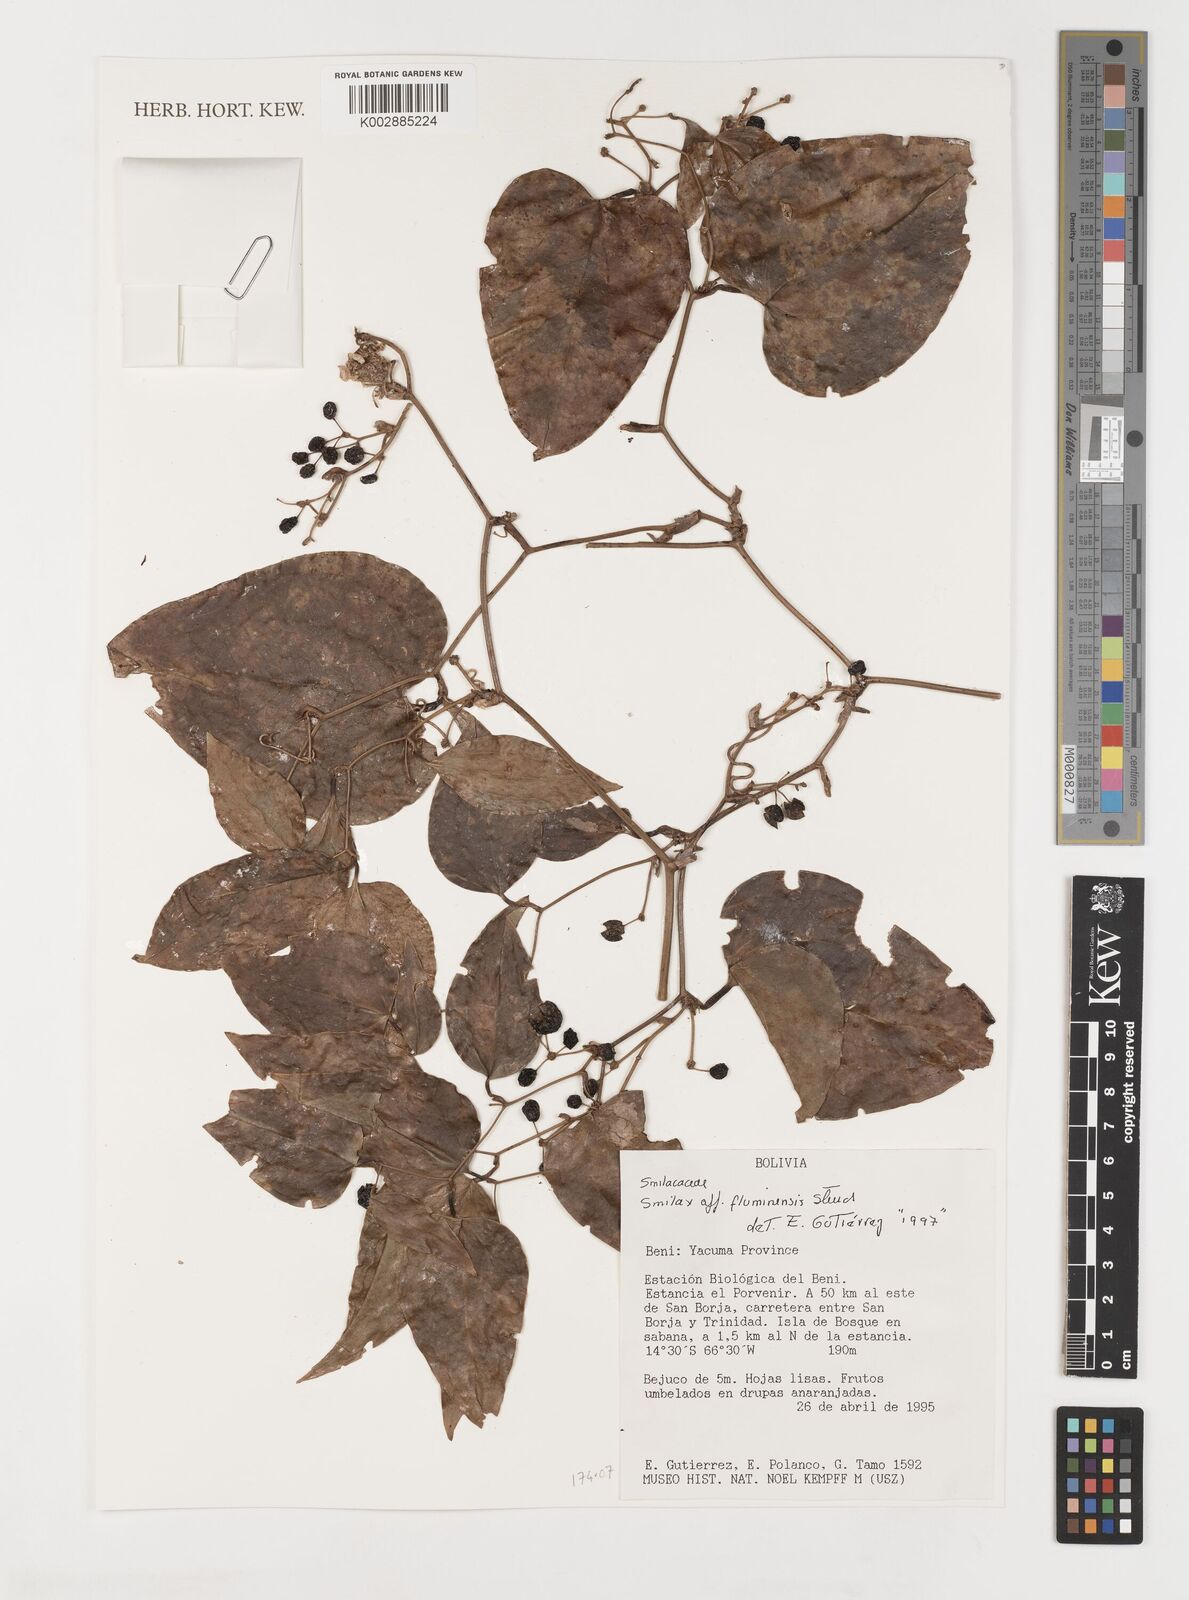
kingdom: Plantae
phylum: Tracheophyta
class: Liliopsida
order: Liliales
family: Smilacaceae
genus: Smilax
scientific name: Smilax fluminensis
